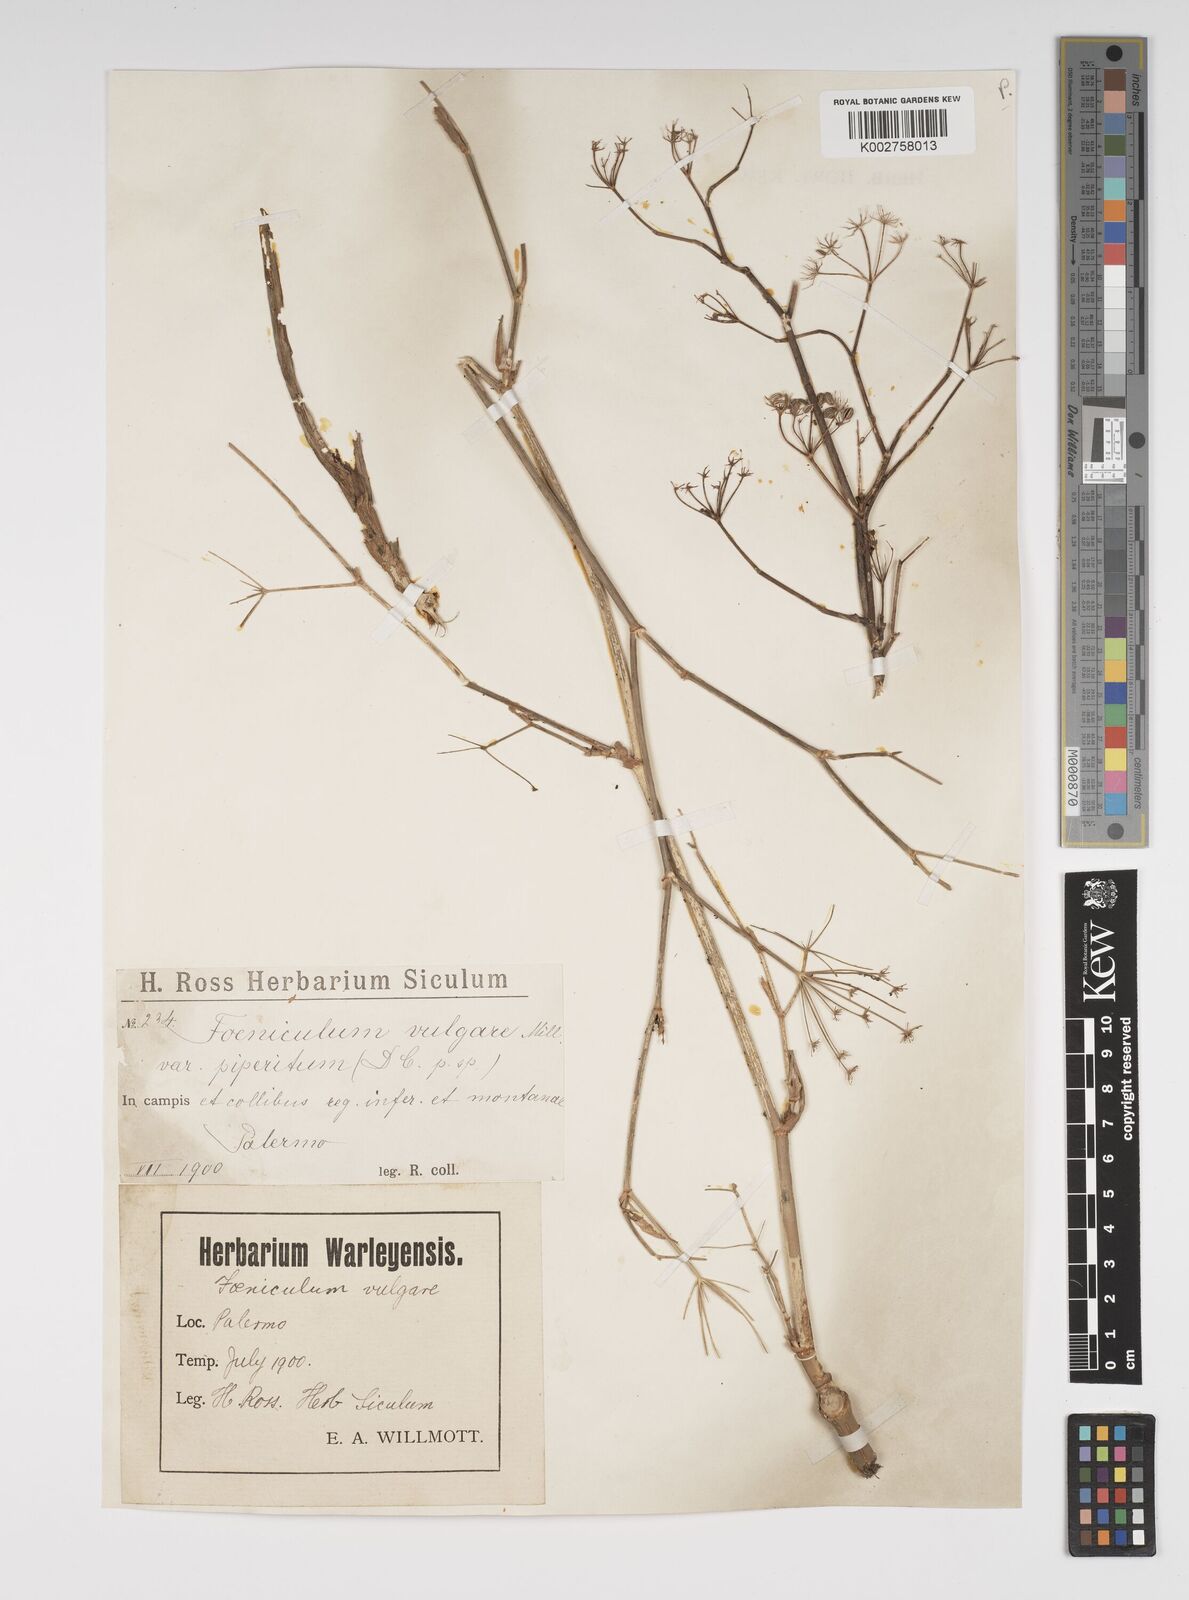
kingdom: Plantae
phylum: Tracheophyta
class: Magnoliopsida
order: Apiales
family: Apiaceae
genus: Foeniculum
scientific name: Foeniculum vulgare
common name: Fennel
